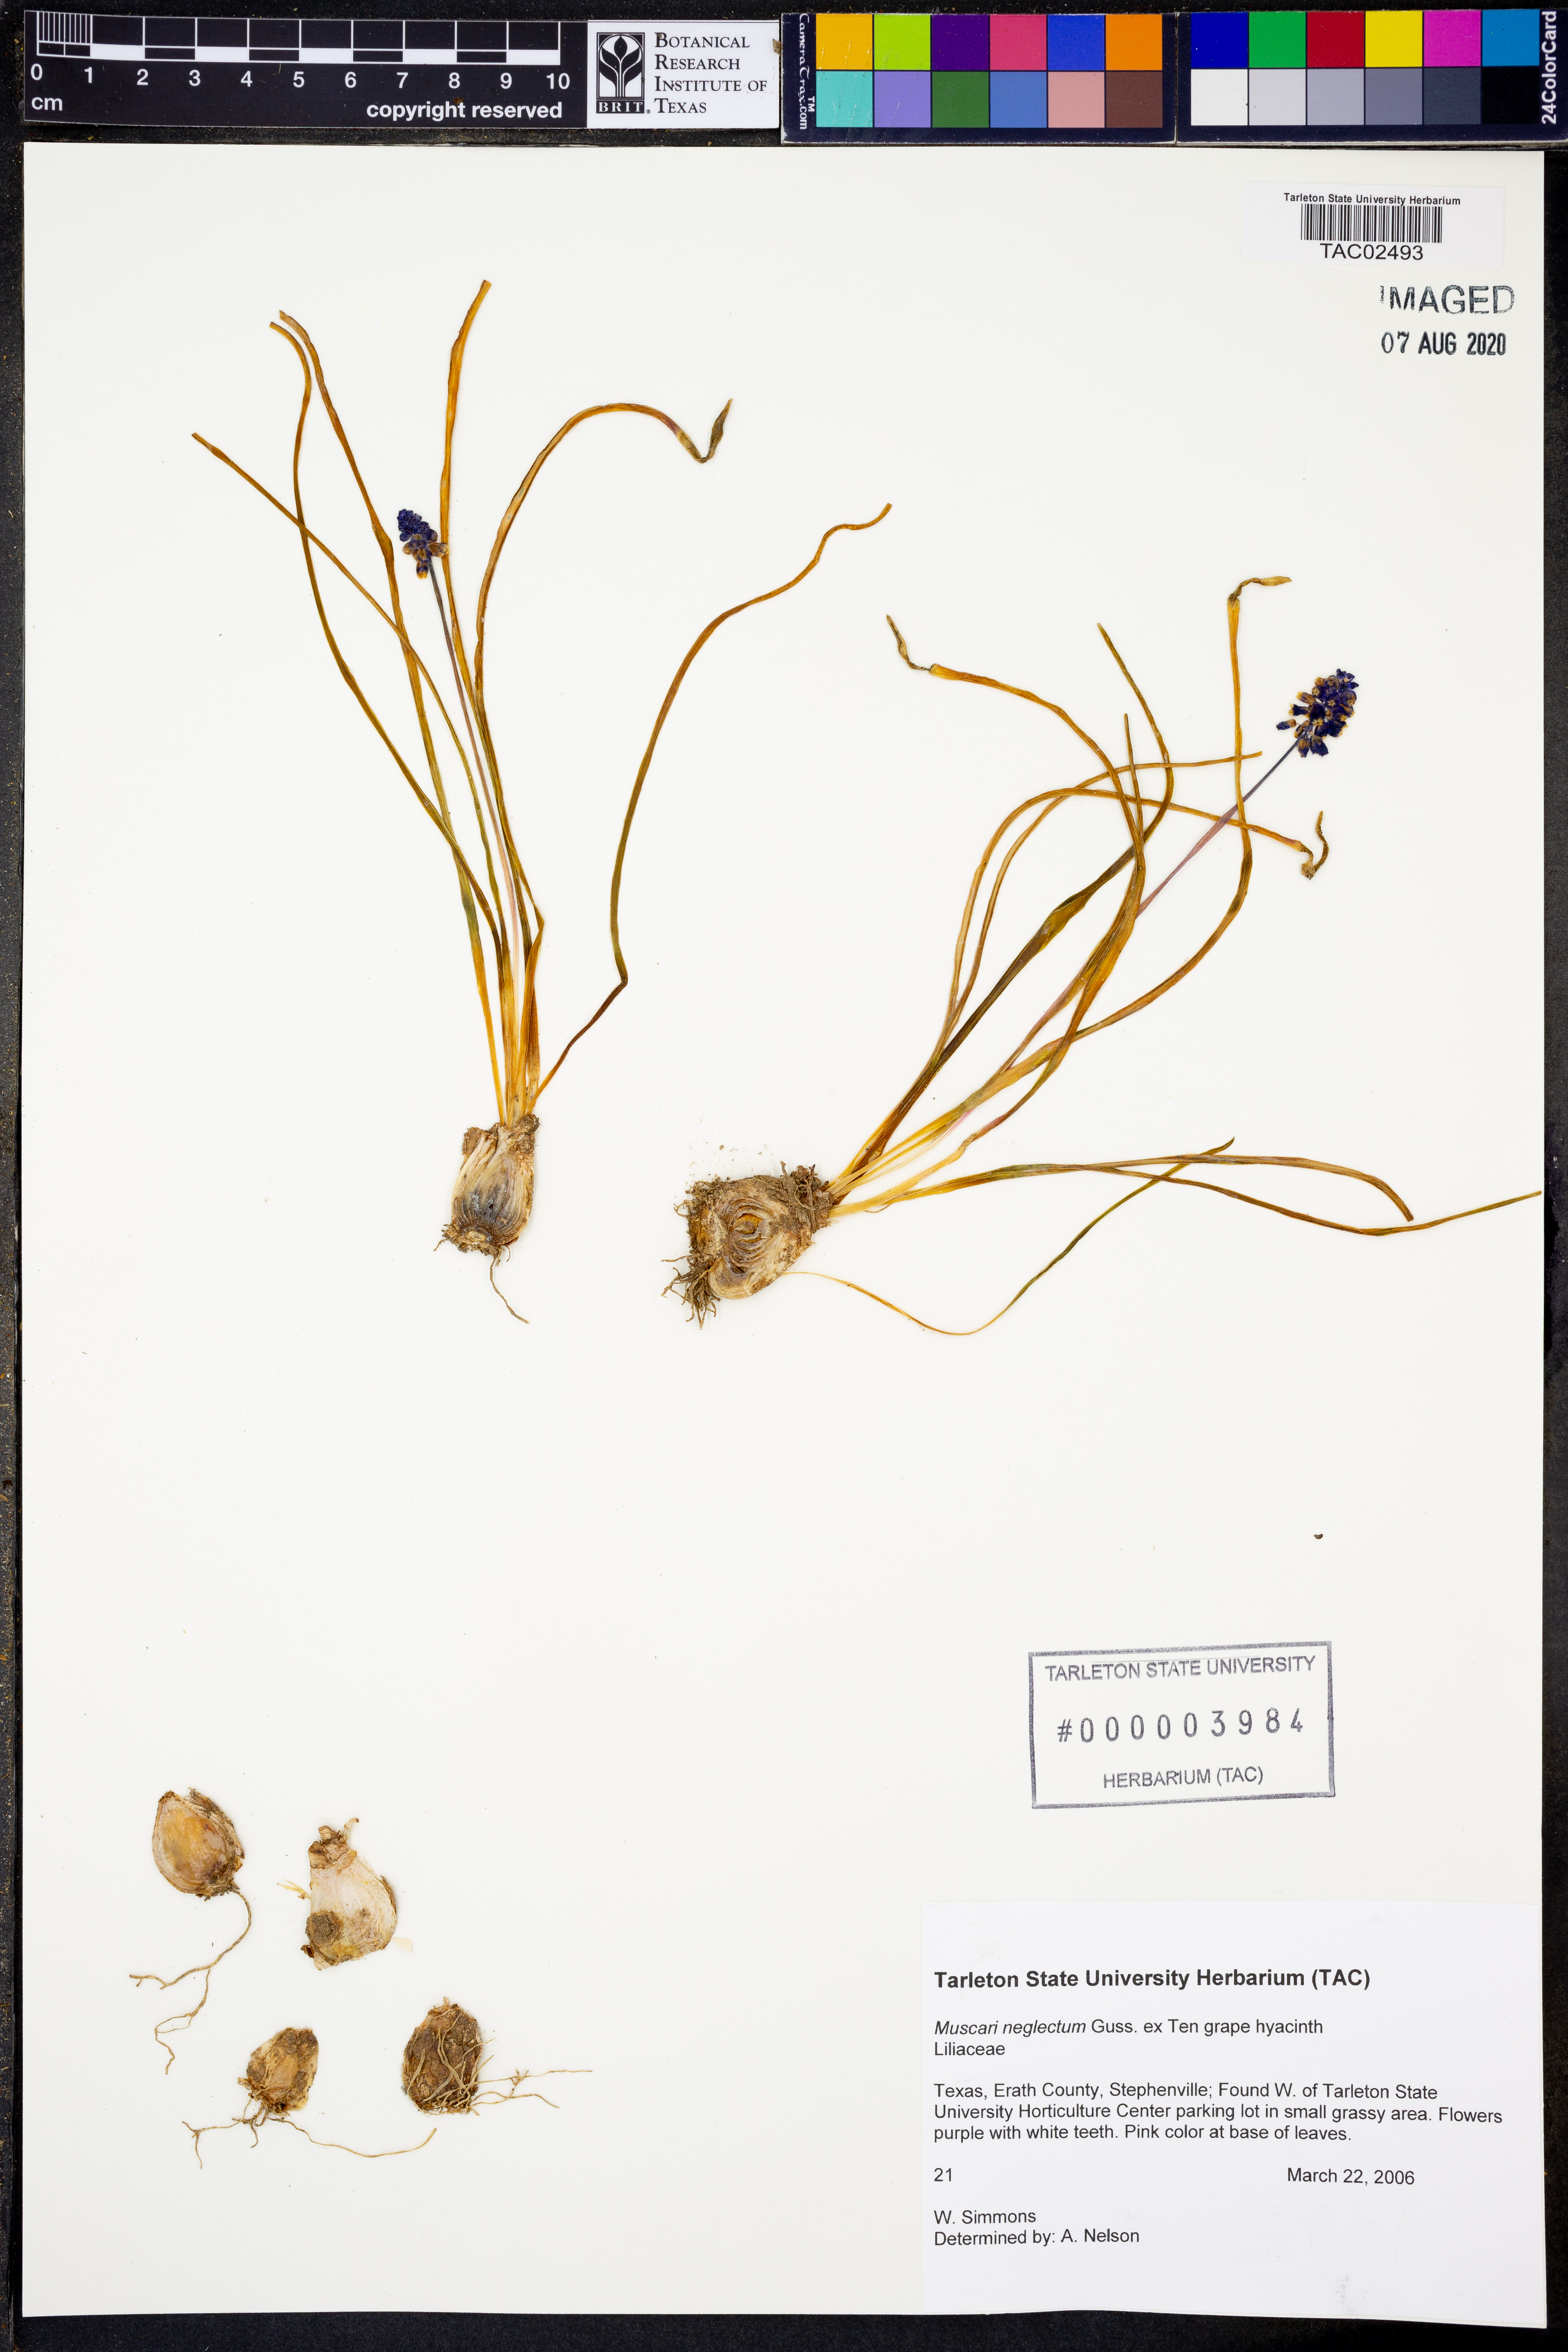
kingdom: Plantae
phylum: Tracheophyta
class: Liliopsida
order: Asparagales
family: Asparagaceae
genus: Muscari
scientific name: Muscari neglectum
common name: Grape-hyacinth
